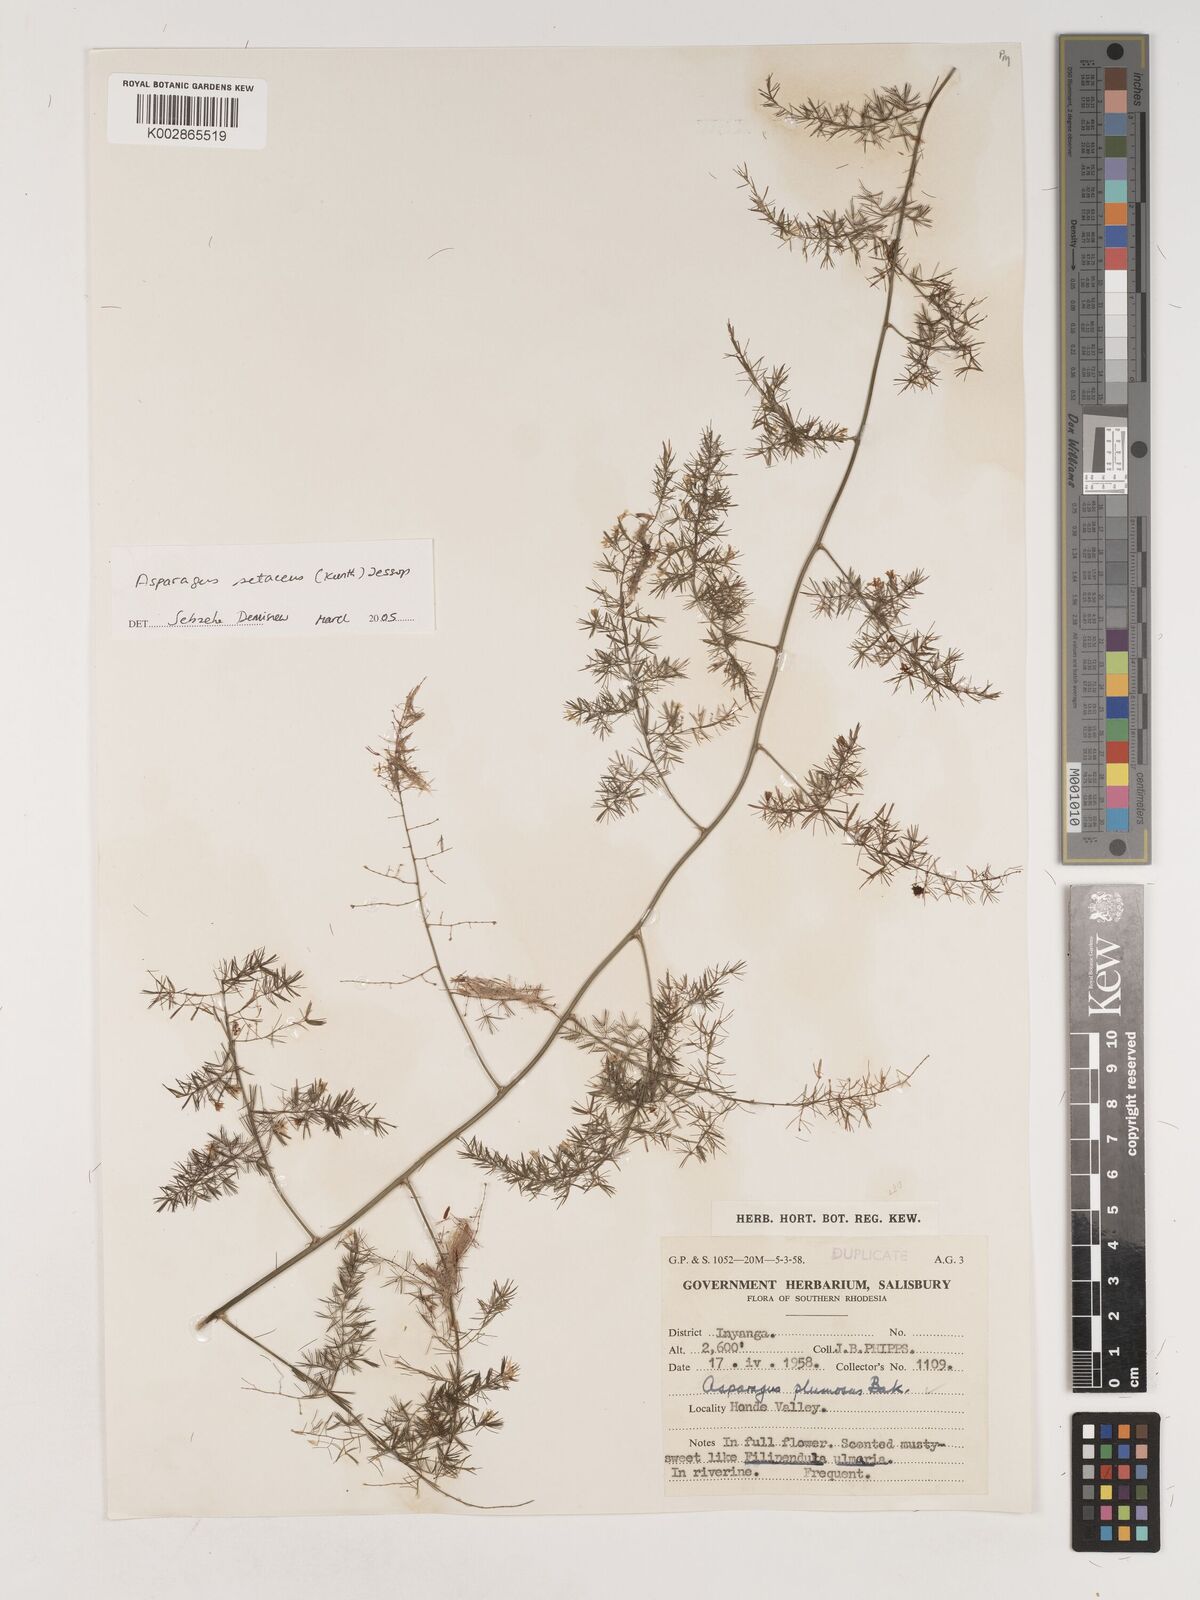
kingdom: Plantae
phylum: Tracheophyta
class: Liliopsida
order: Asparagales
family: Asparagaceae
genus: Asparagus
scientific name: Asparagus setaceus
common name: Common asparagus fern
